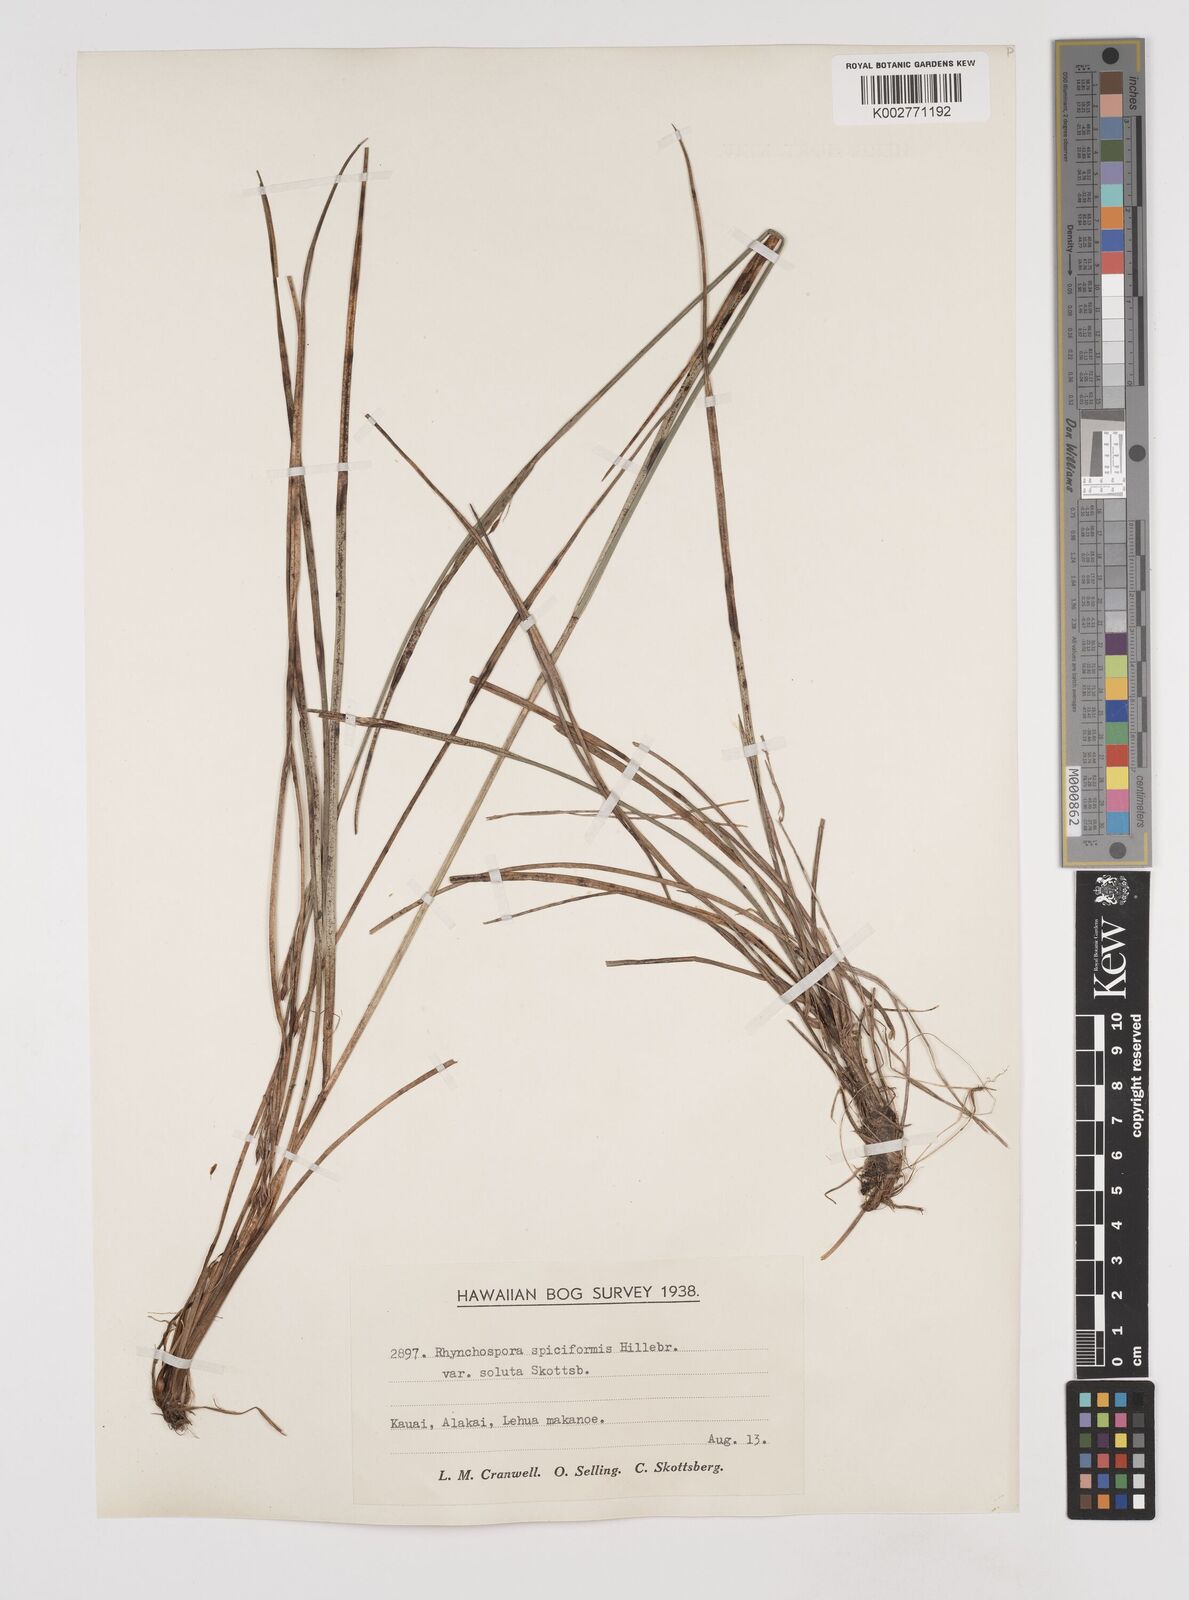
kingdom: Plantae
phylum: Tracheophyta
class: Liliopsida
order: Poales
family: Cyperaceae
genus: Rhynchospora
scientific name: Rhynchospora chinensis
